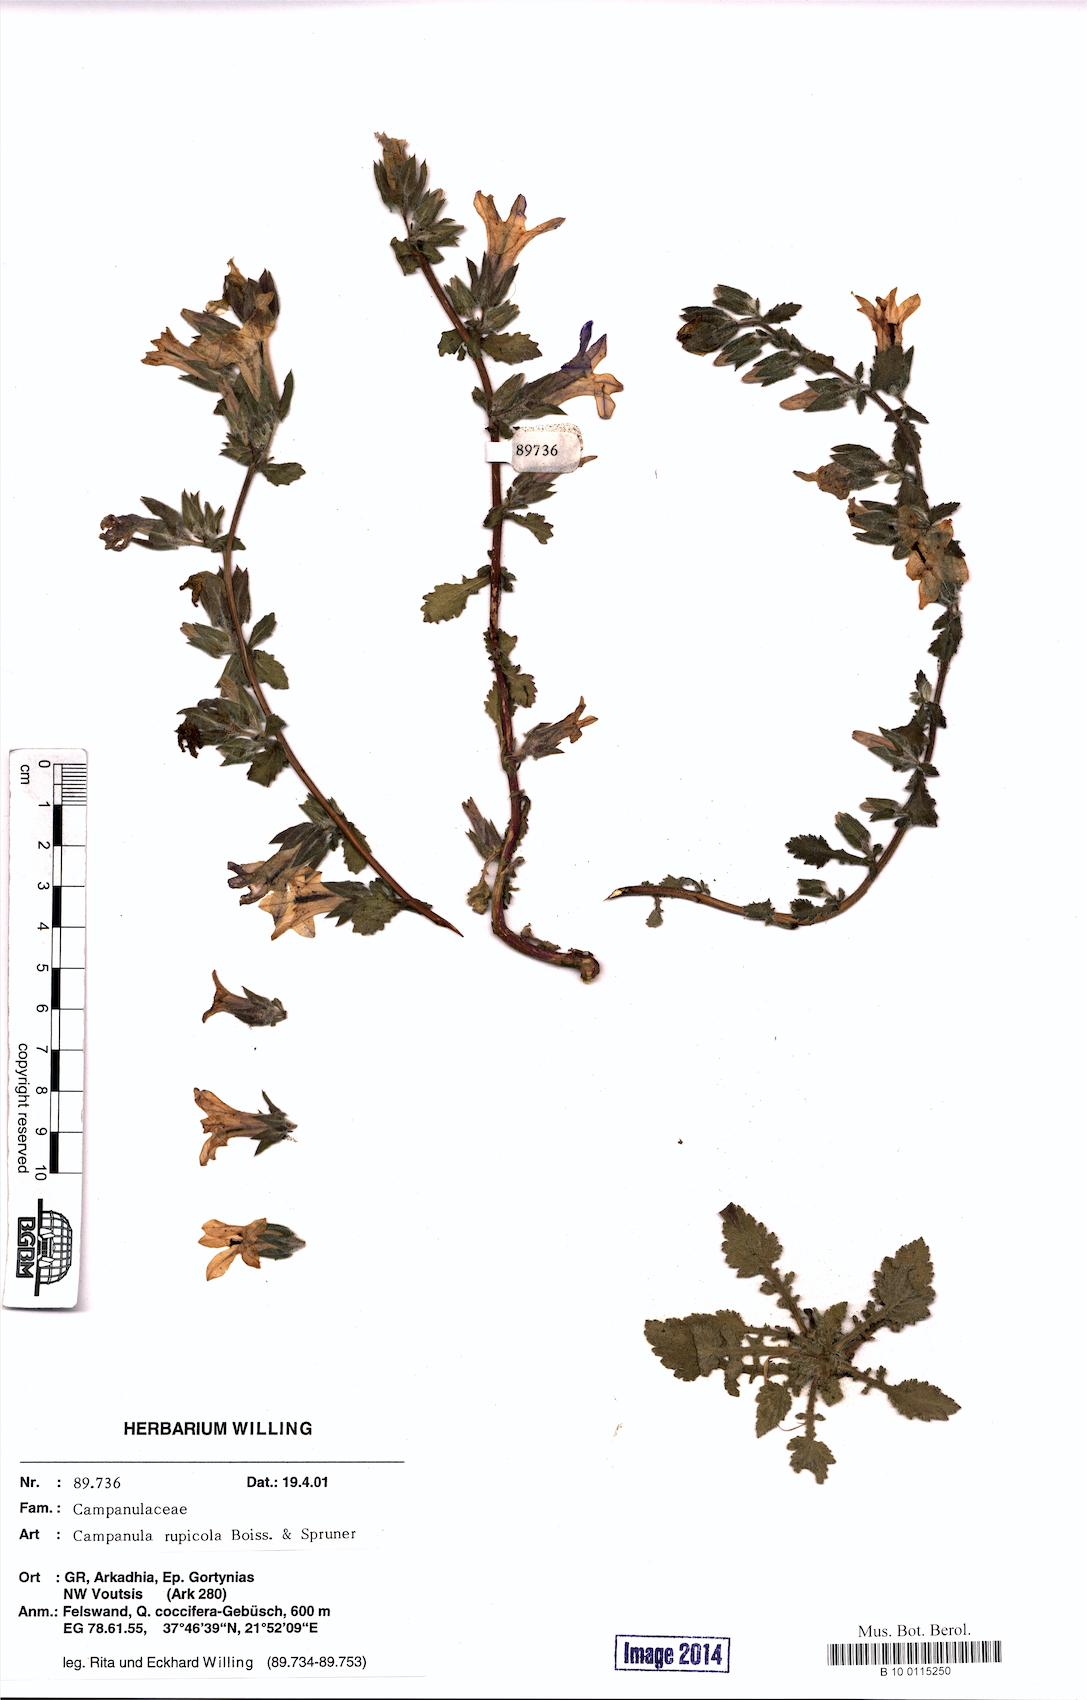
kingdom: Plantae
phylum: Tracheophyta
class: Magnoliopsida
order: Asterales
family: Campanulaceae
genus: Campanula
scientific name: Campanula rupicola
